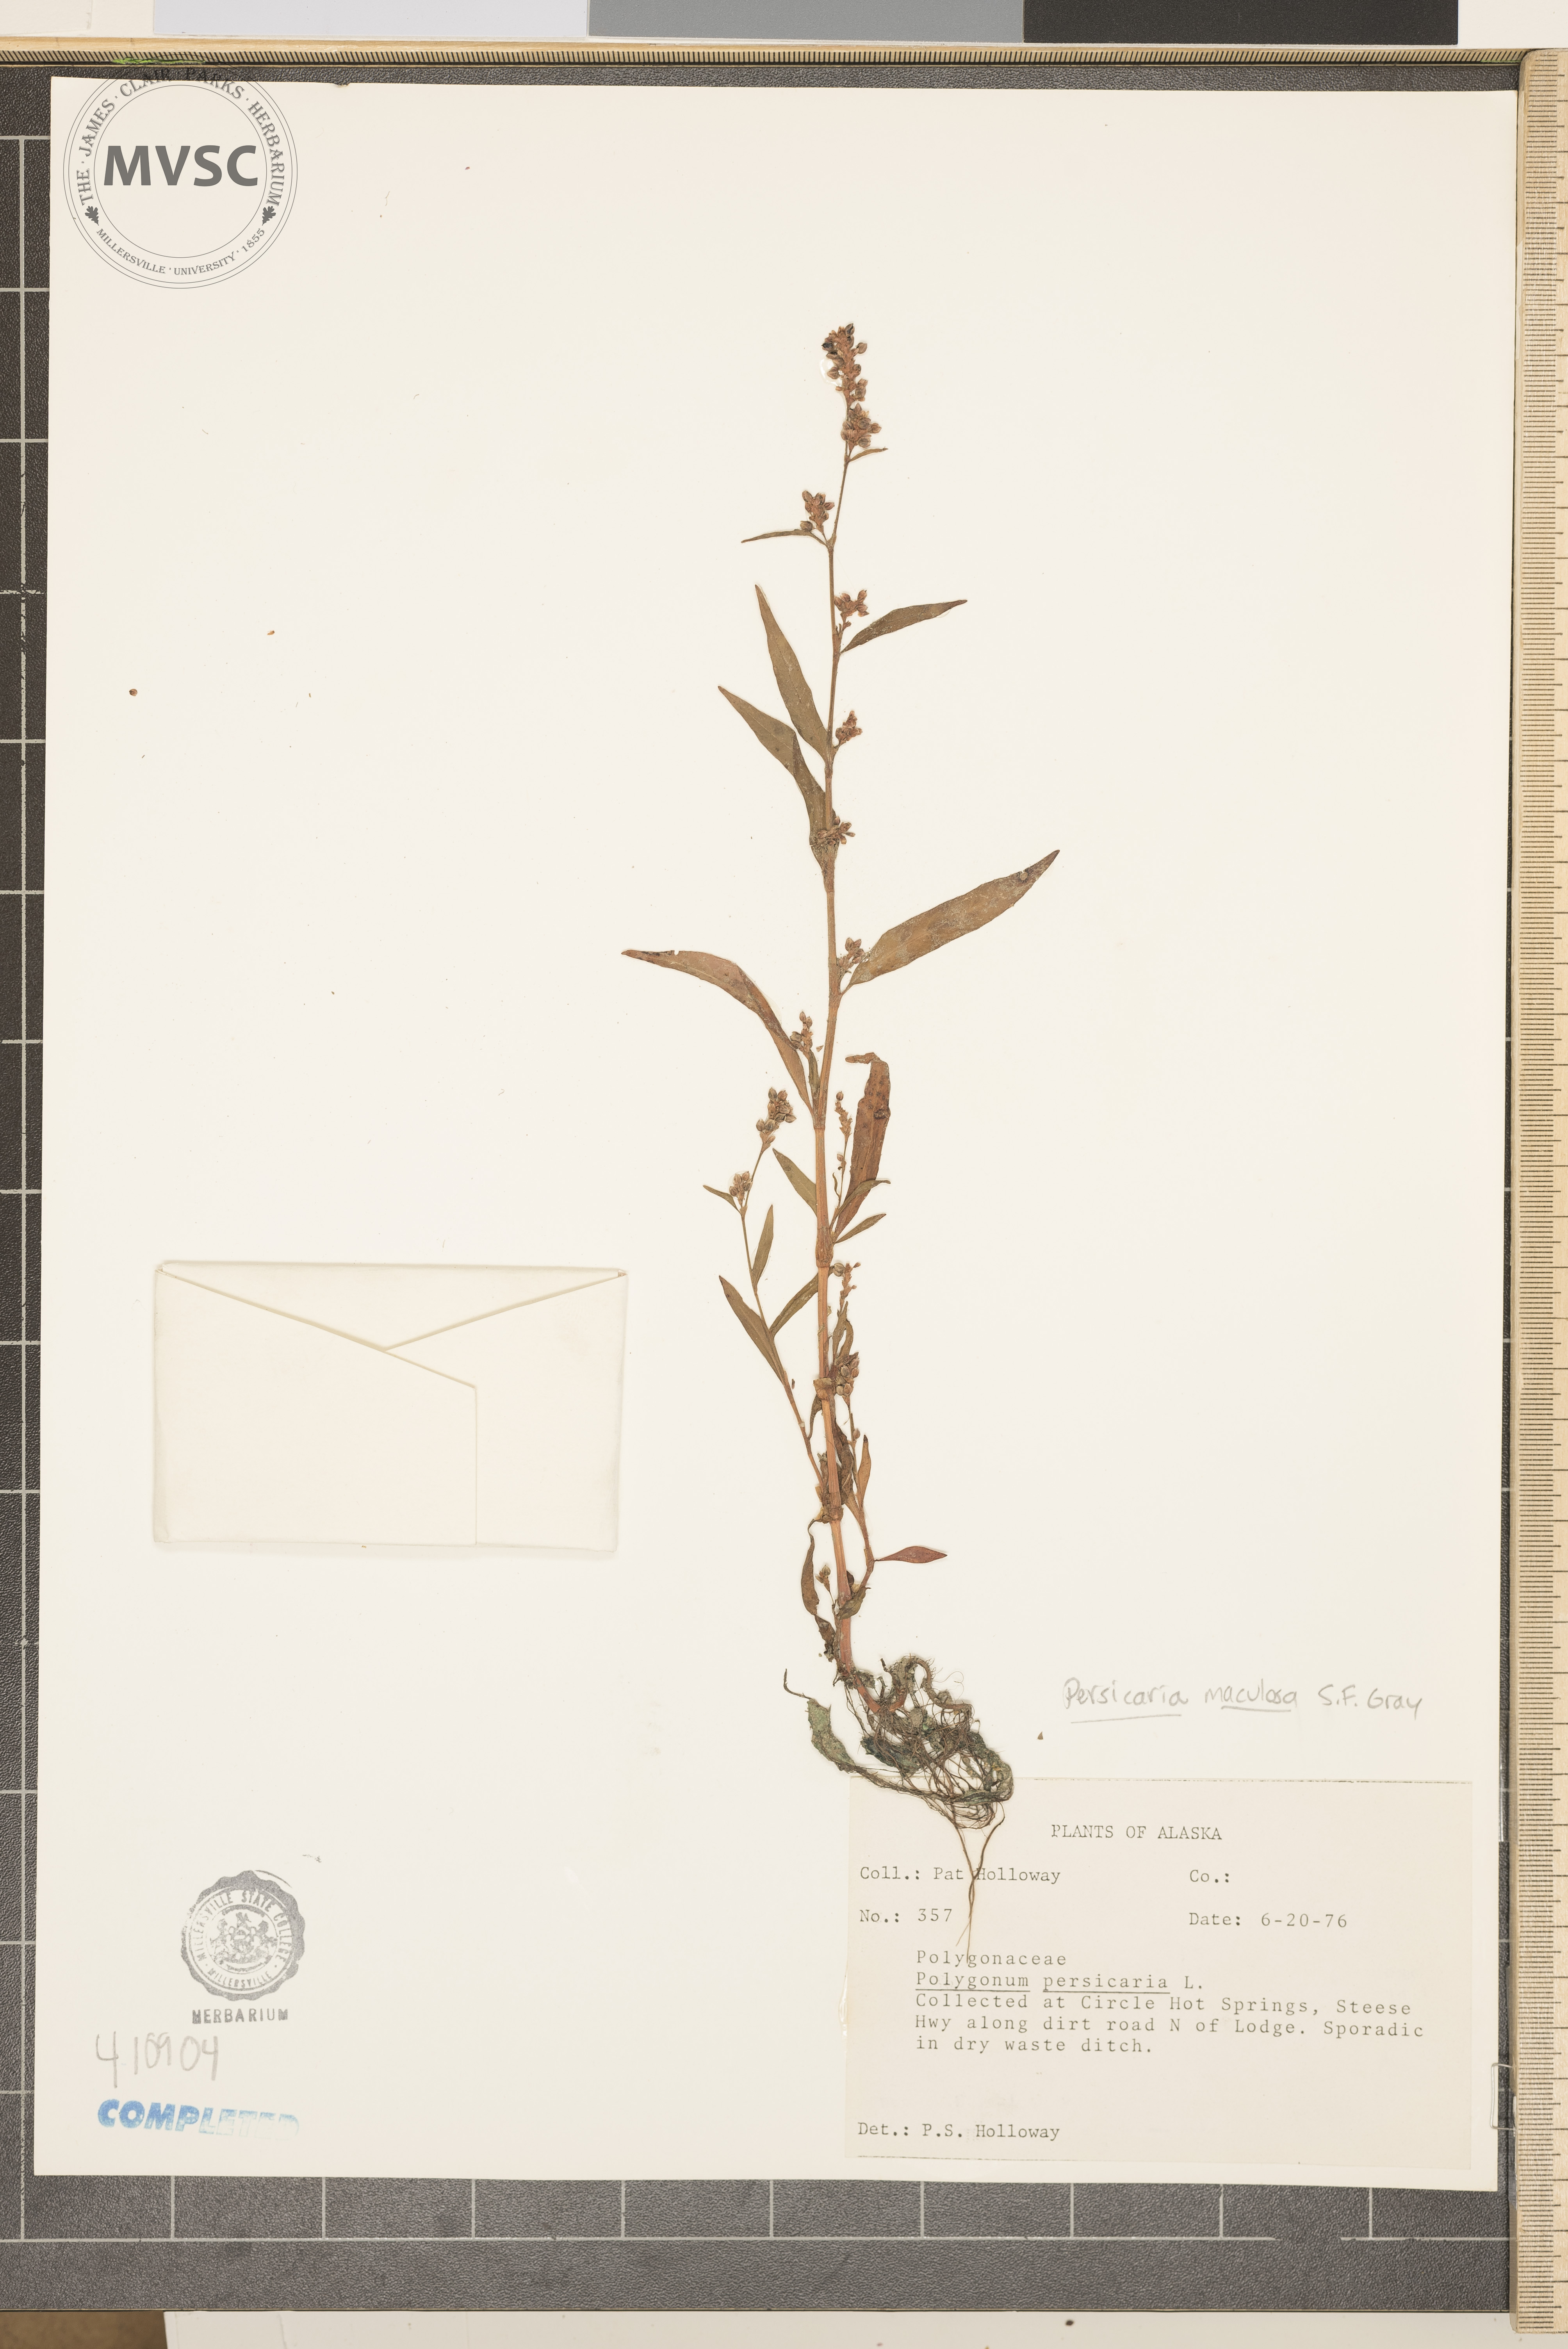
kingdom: Plantae
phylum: Tracheophyta
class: Magnoliopsida
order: Caryophyllales
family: Polygonaceae
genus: Persicaria
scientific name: Persicaria maculosa
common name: Redshank
